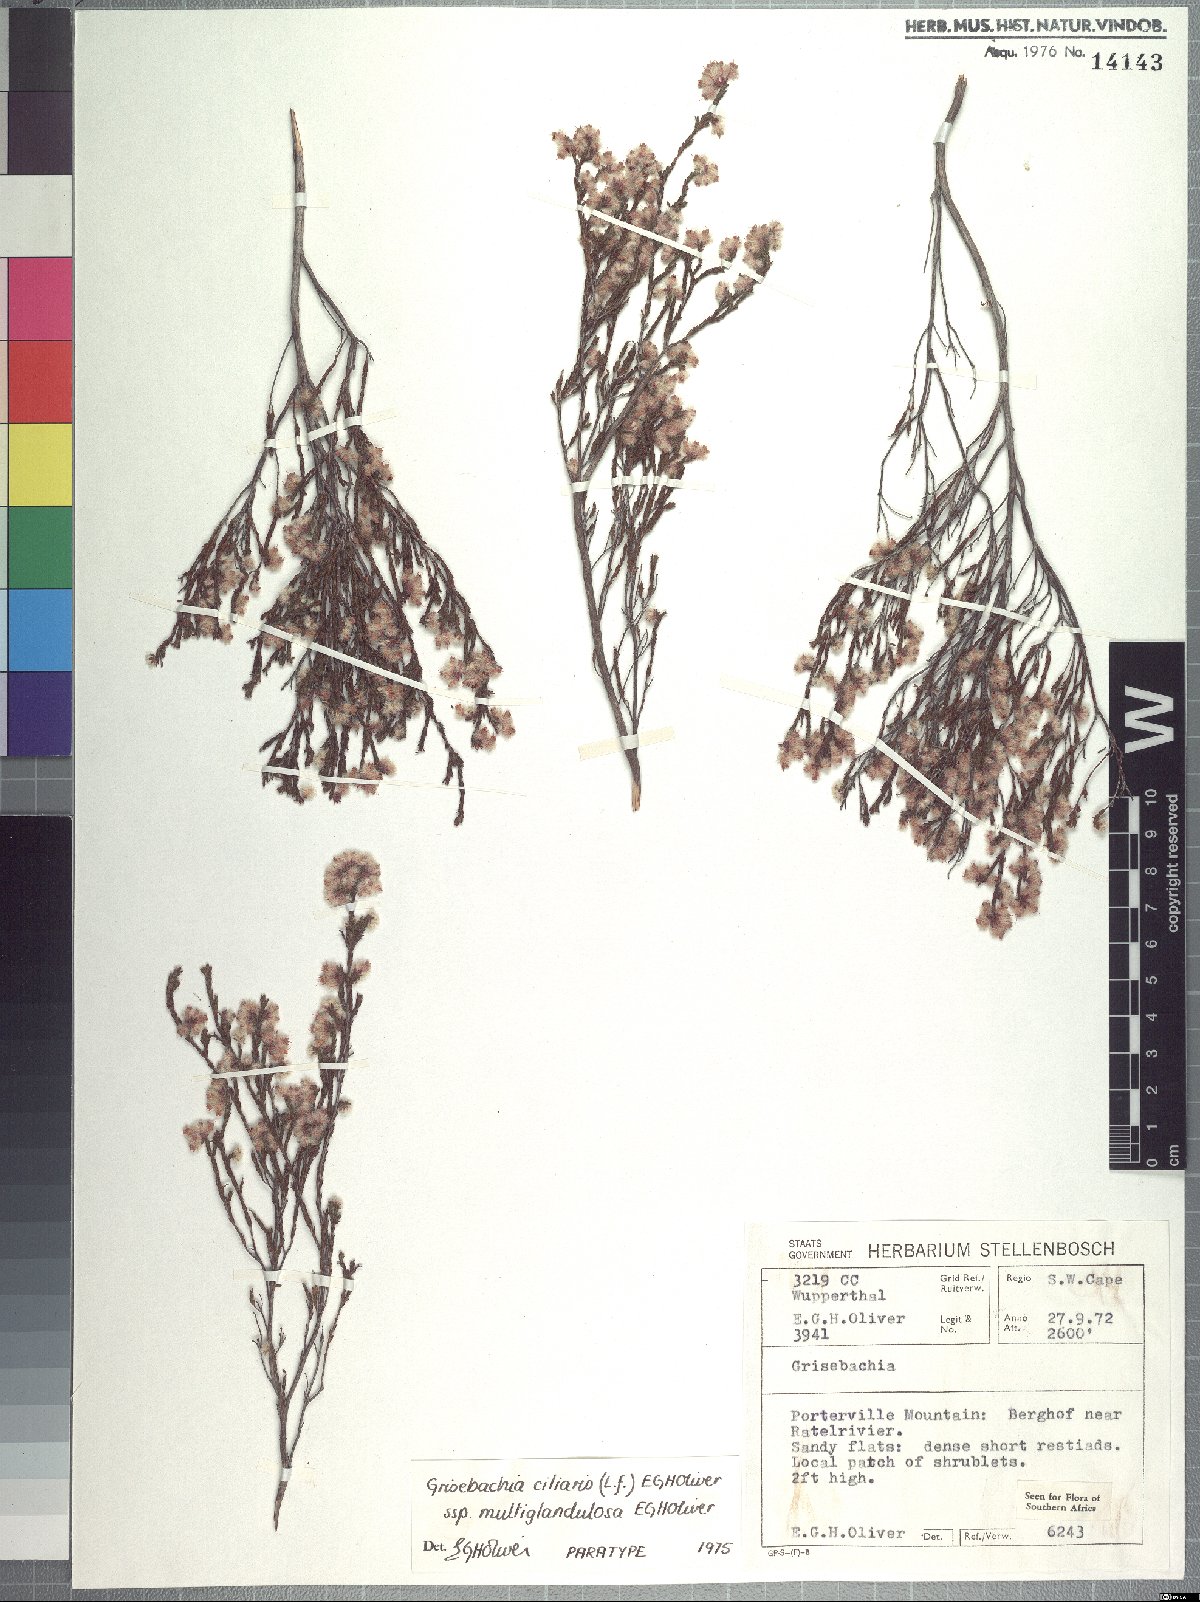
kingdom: Plantae
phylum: Tracheophyta
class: Magnoliopsida
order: Ericales
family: Ericaceae
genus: Erica
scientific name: Erica plumosa
